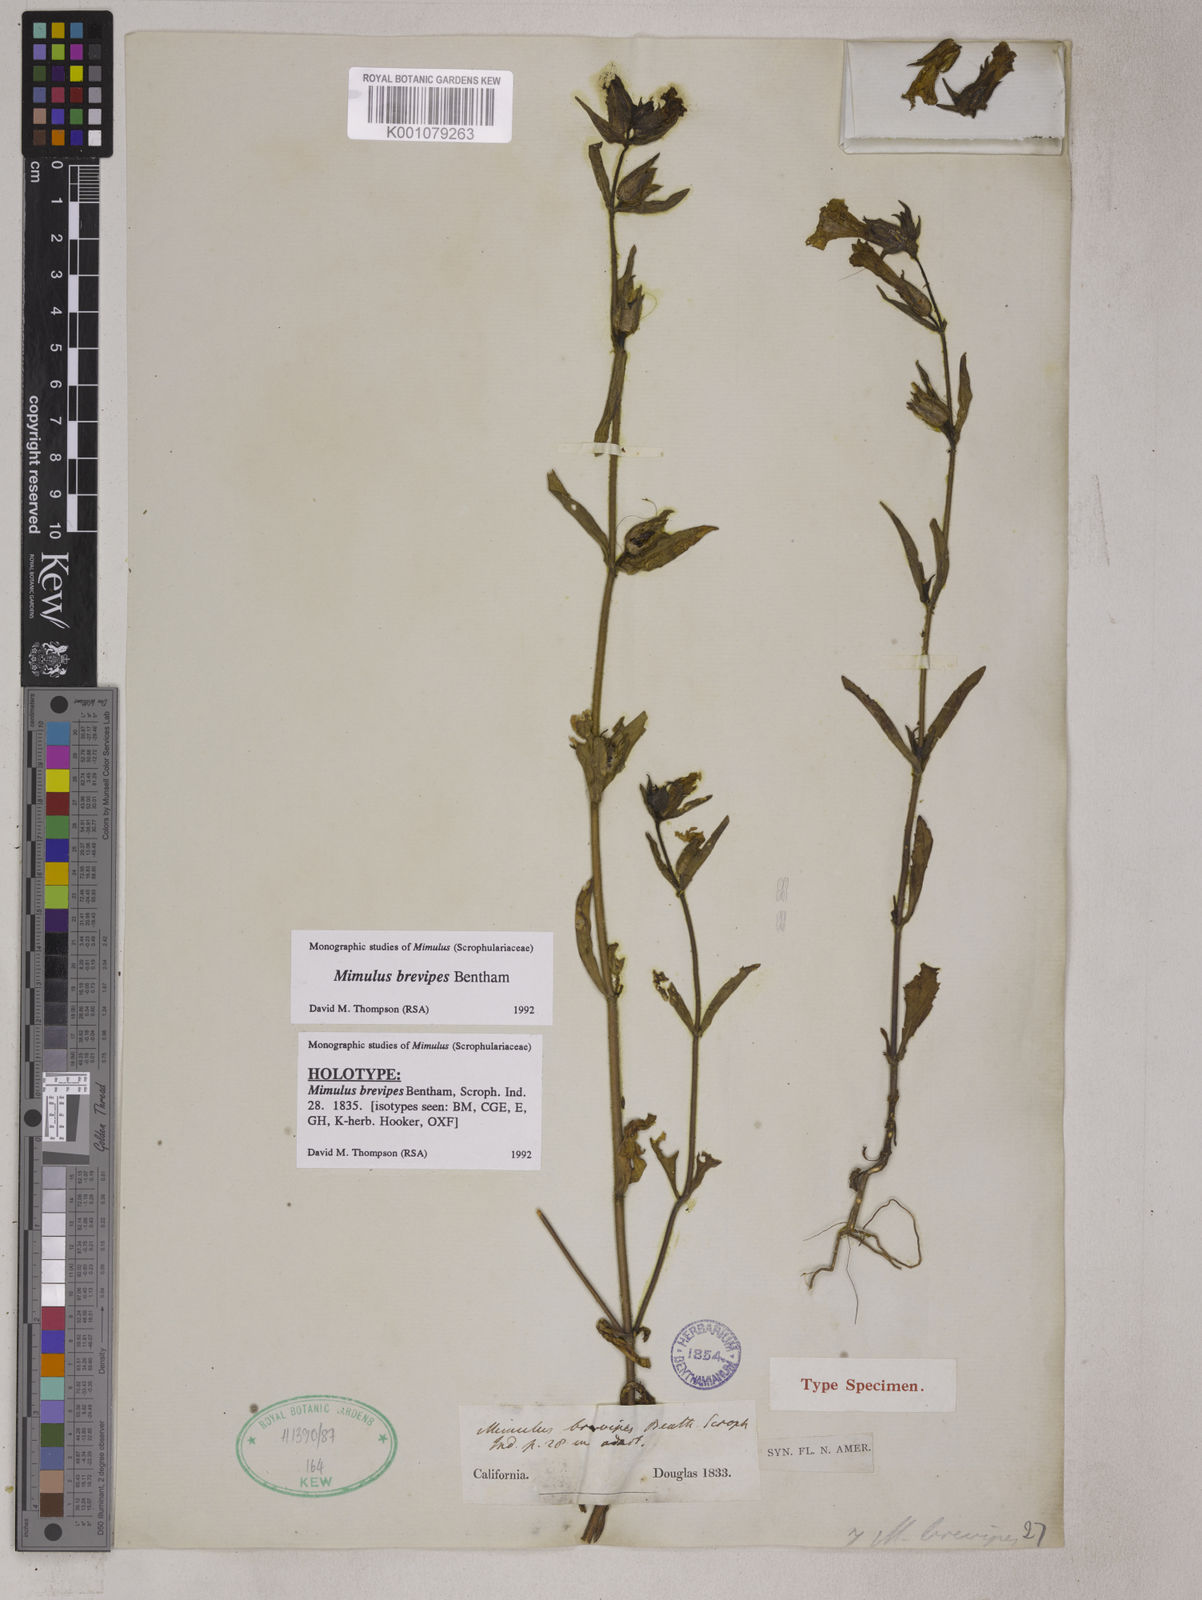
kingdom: Plantae
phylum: Tracheophyta
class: Magnoliopsida
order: Lamiales
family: Phrymaceae
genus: Diplacus
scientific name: Diplacus brevipes
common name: Wide-throat yellow monkey-flower
